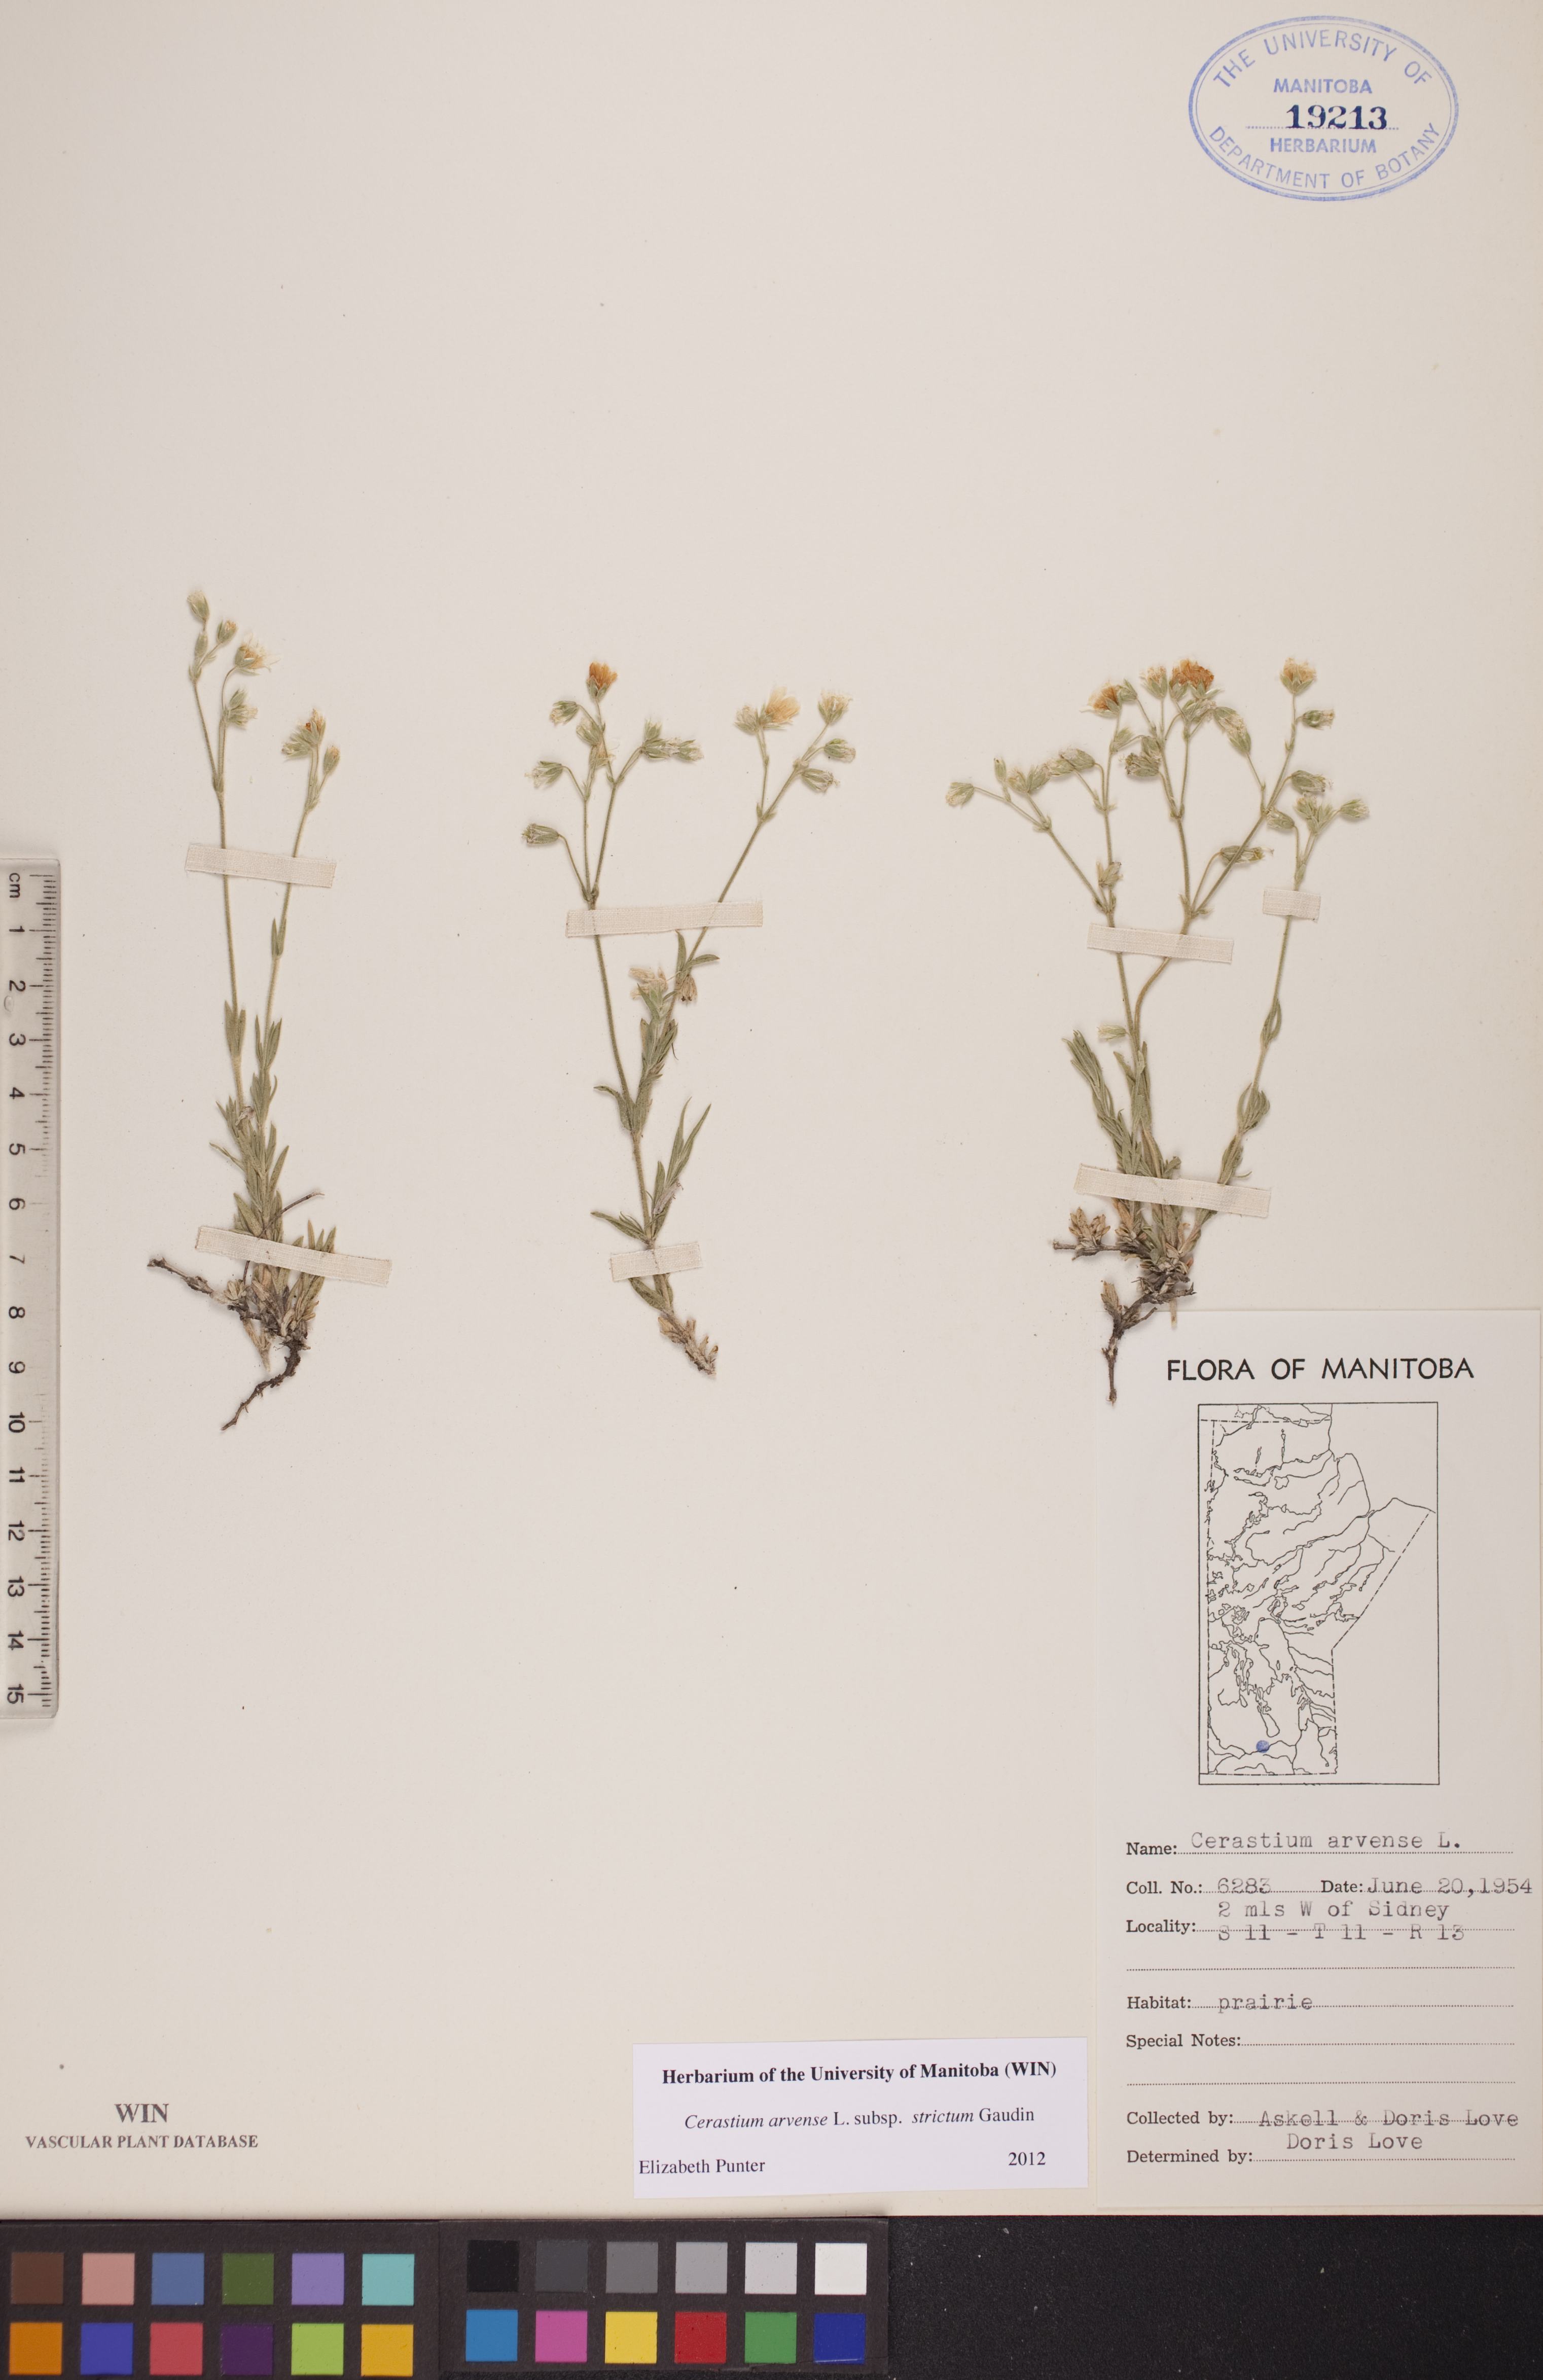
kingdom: Plantae
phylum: Tracheophyta
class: Magnoliopsida
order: Caryophyllales
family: Caryophyllaceae
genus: Cerastium
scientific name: Cerastium elongatum
